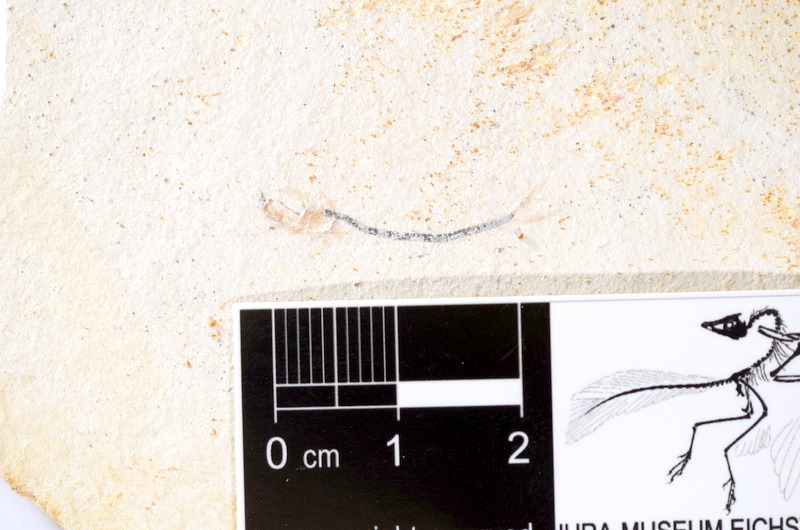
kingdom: Animalia
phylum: Chordata
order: Salmoniformes
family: Orthogonikleithridae
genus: Orthogonikleithrus
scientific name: Orthogonikleithrus hoelli
